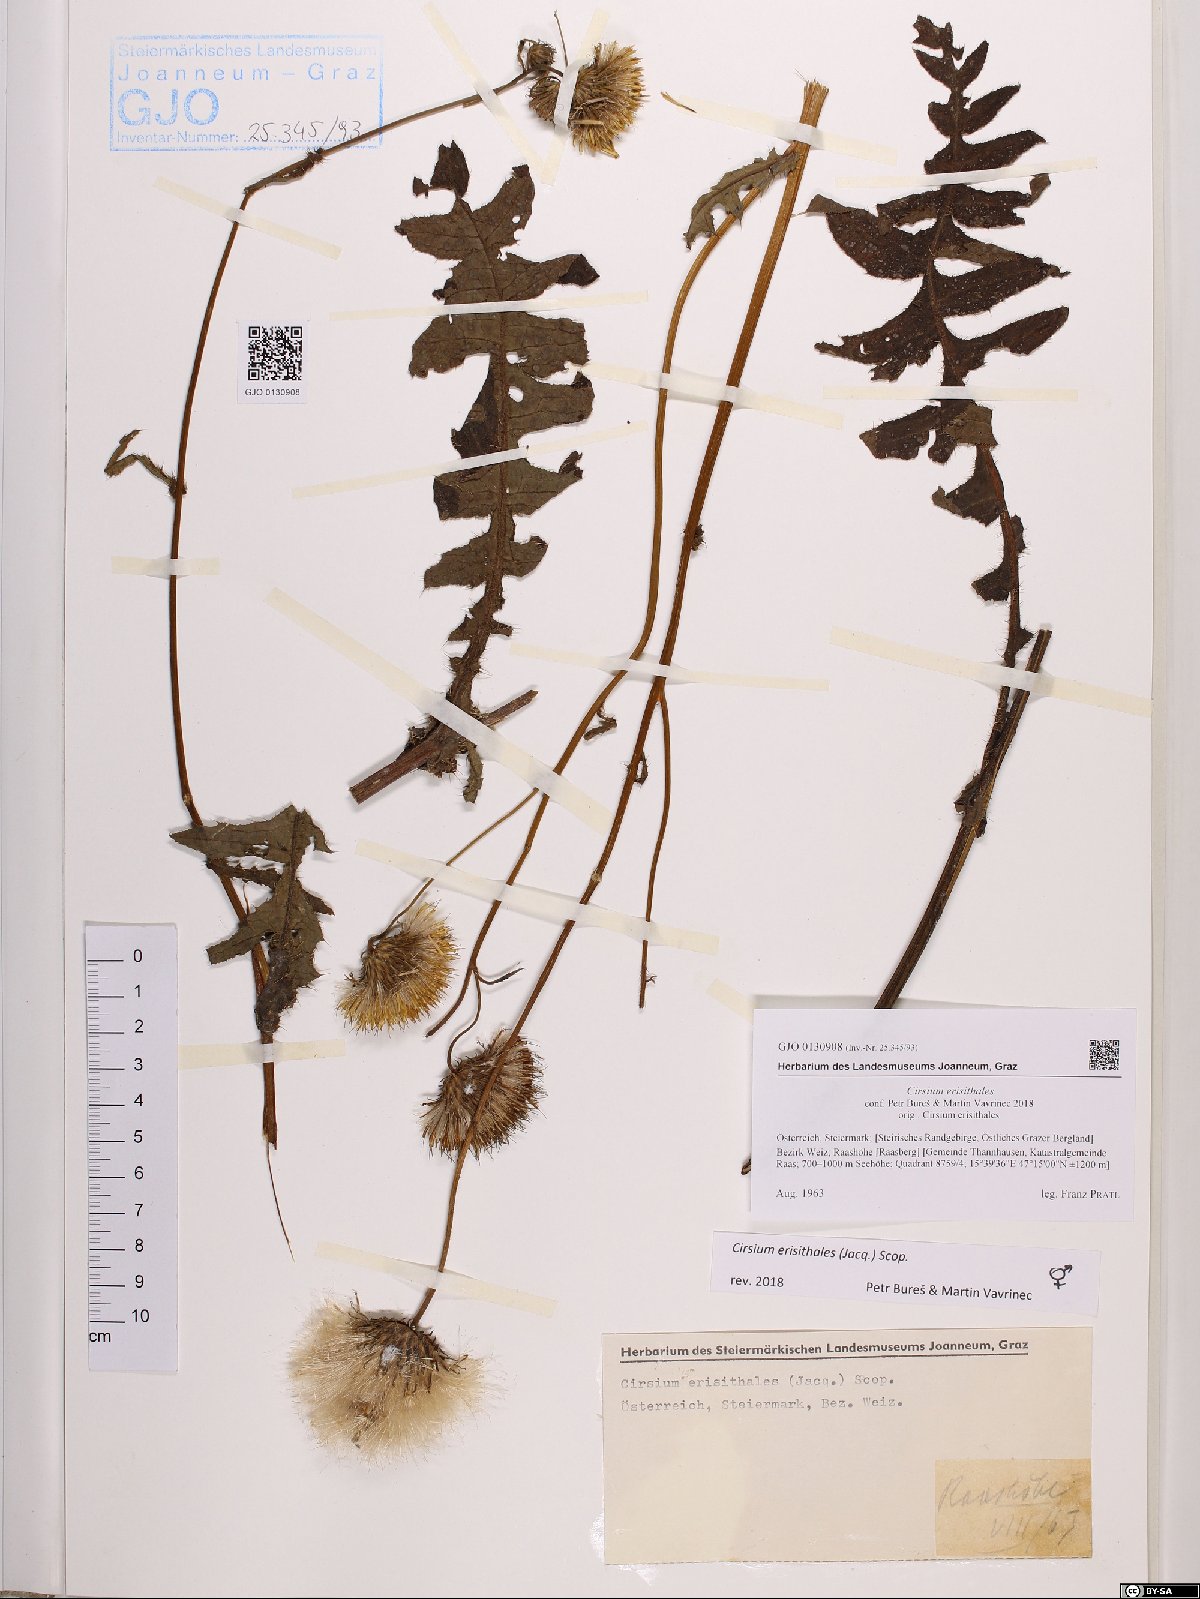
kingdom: Plantae
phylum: Tracheophyta
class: Magnoliopsida
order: Asterales
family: Asteraceae
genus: Cirsium
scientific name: Cirsium erisithales
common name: Yellow thistle
